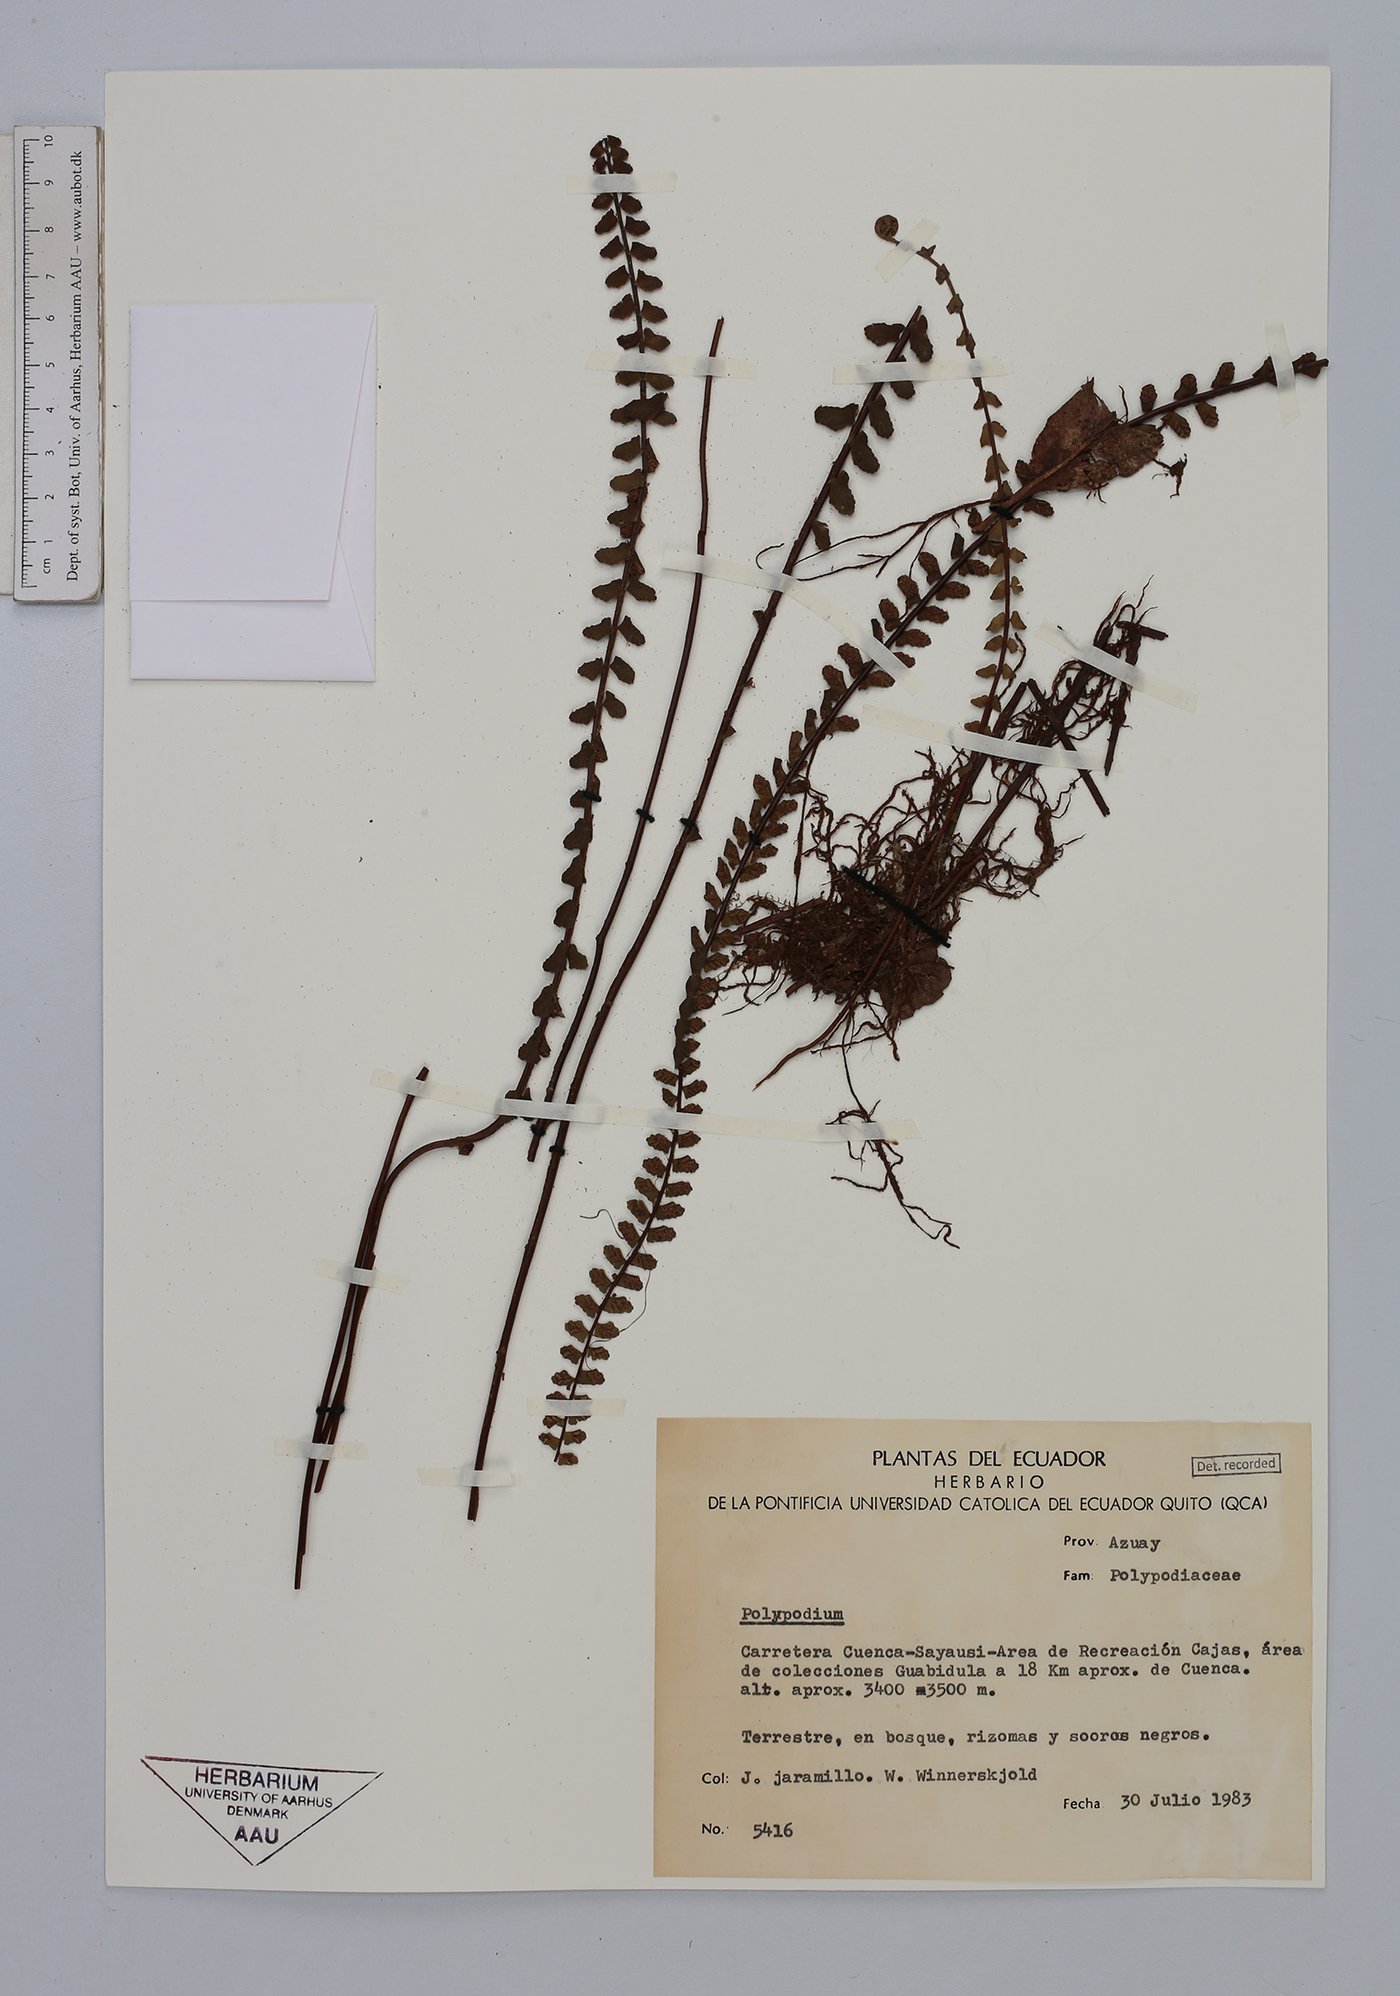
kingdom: Plantae
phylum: Tracheophyta
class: Polypodiopsida
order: Polypodiales
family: Aspleniaceae
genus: Asplenium
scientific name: Asplenium monanthes
